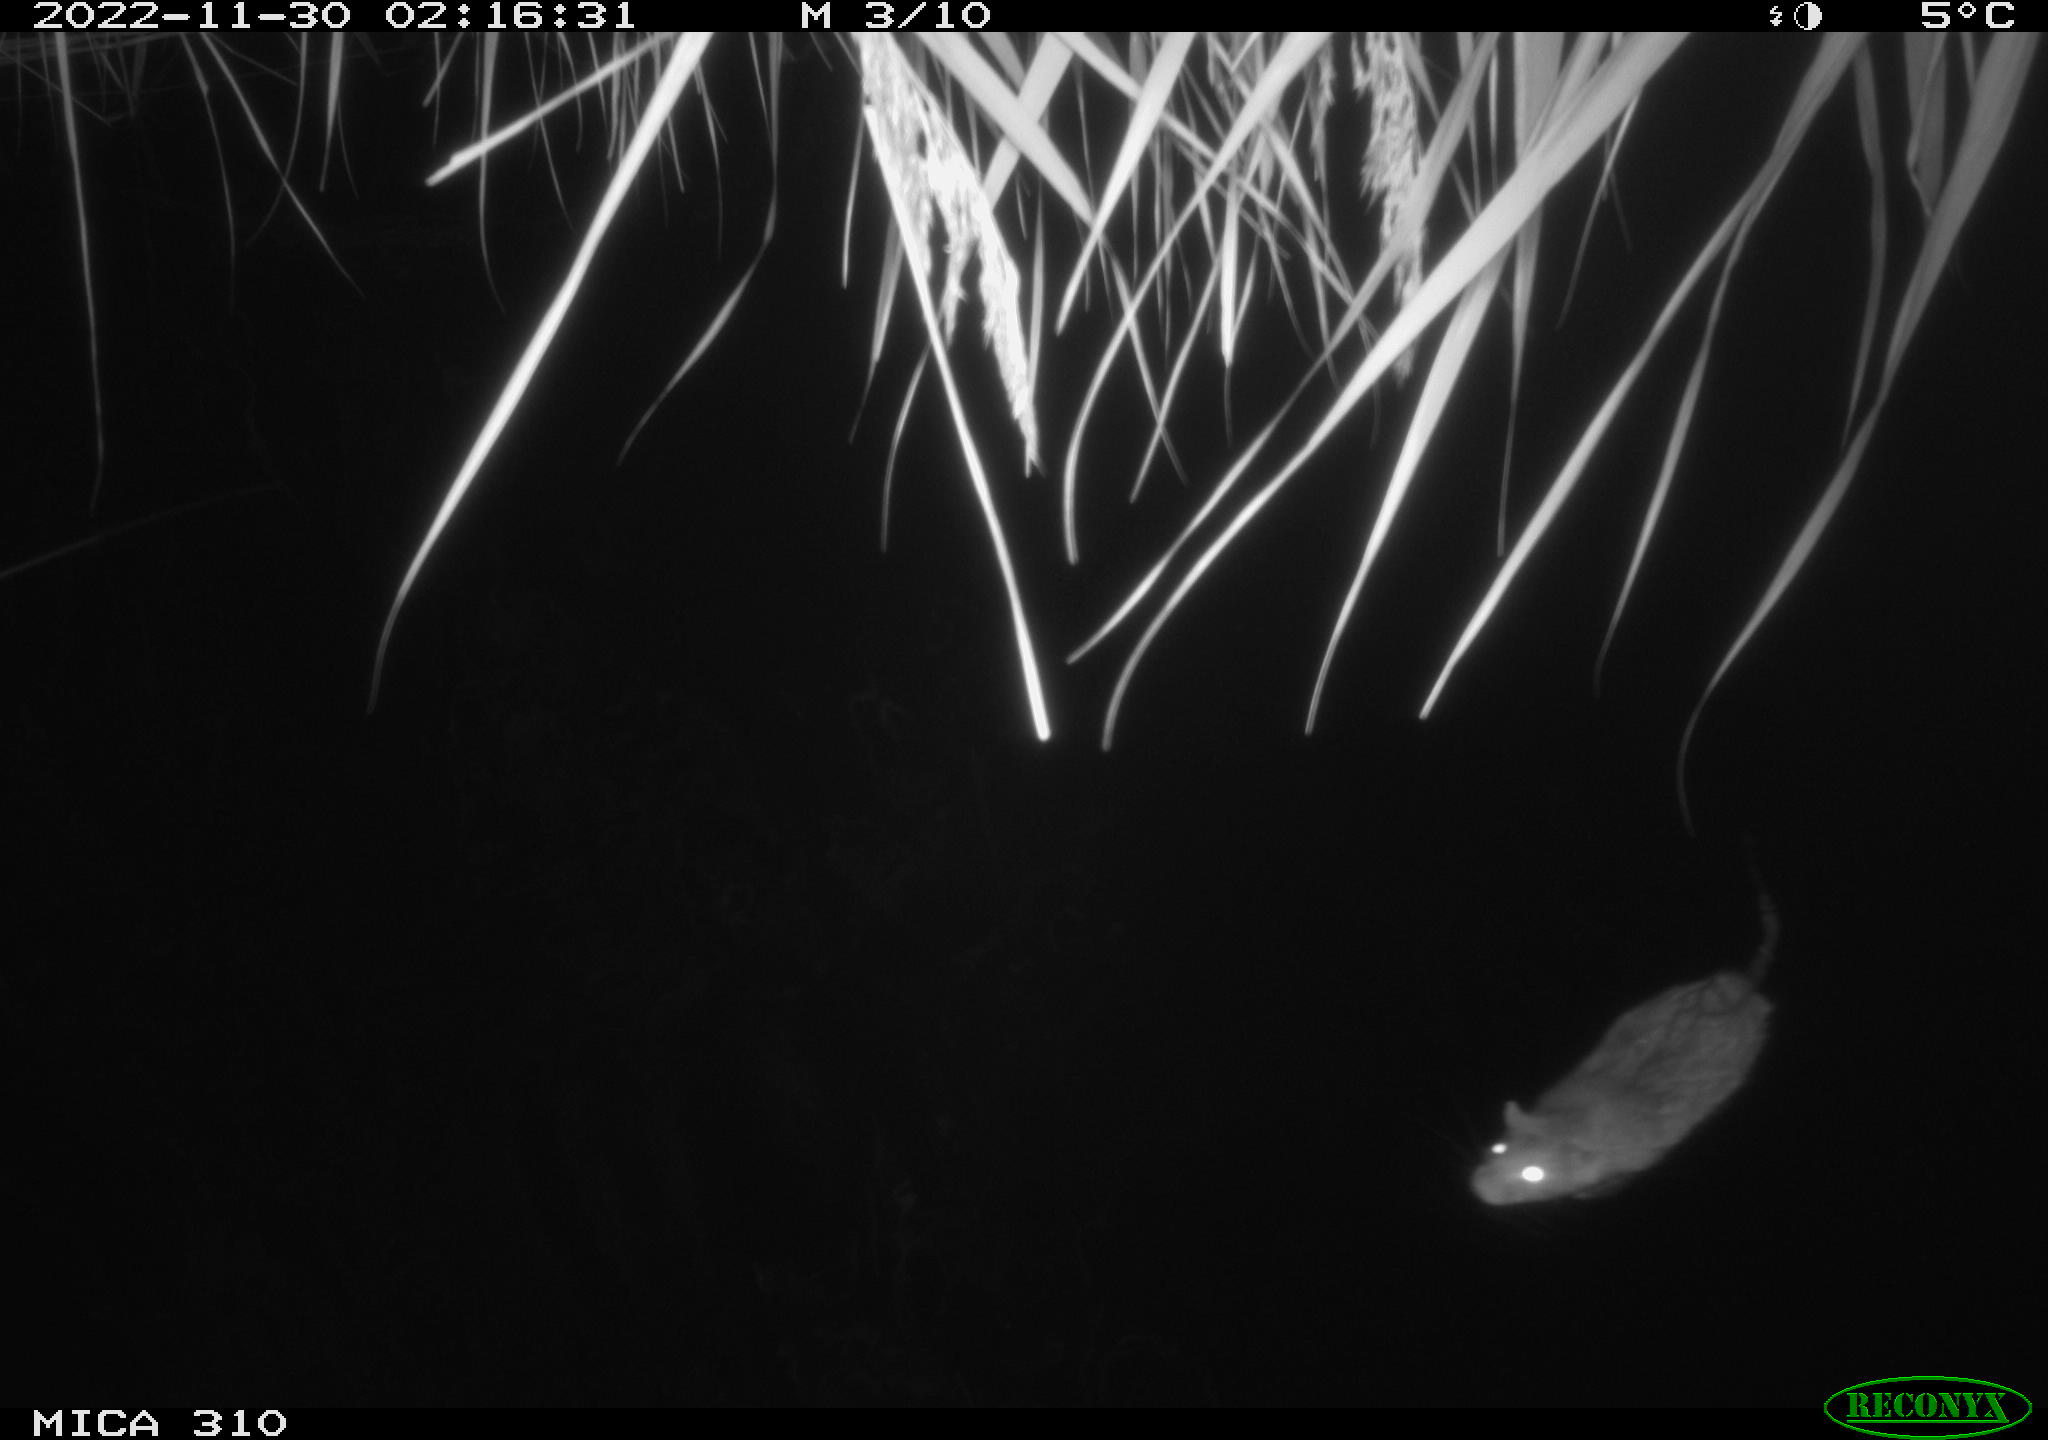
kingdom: Animalia
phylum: Chordata
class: Mammalia
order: Rodentia
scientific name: Rodentia
